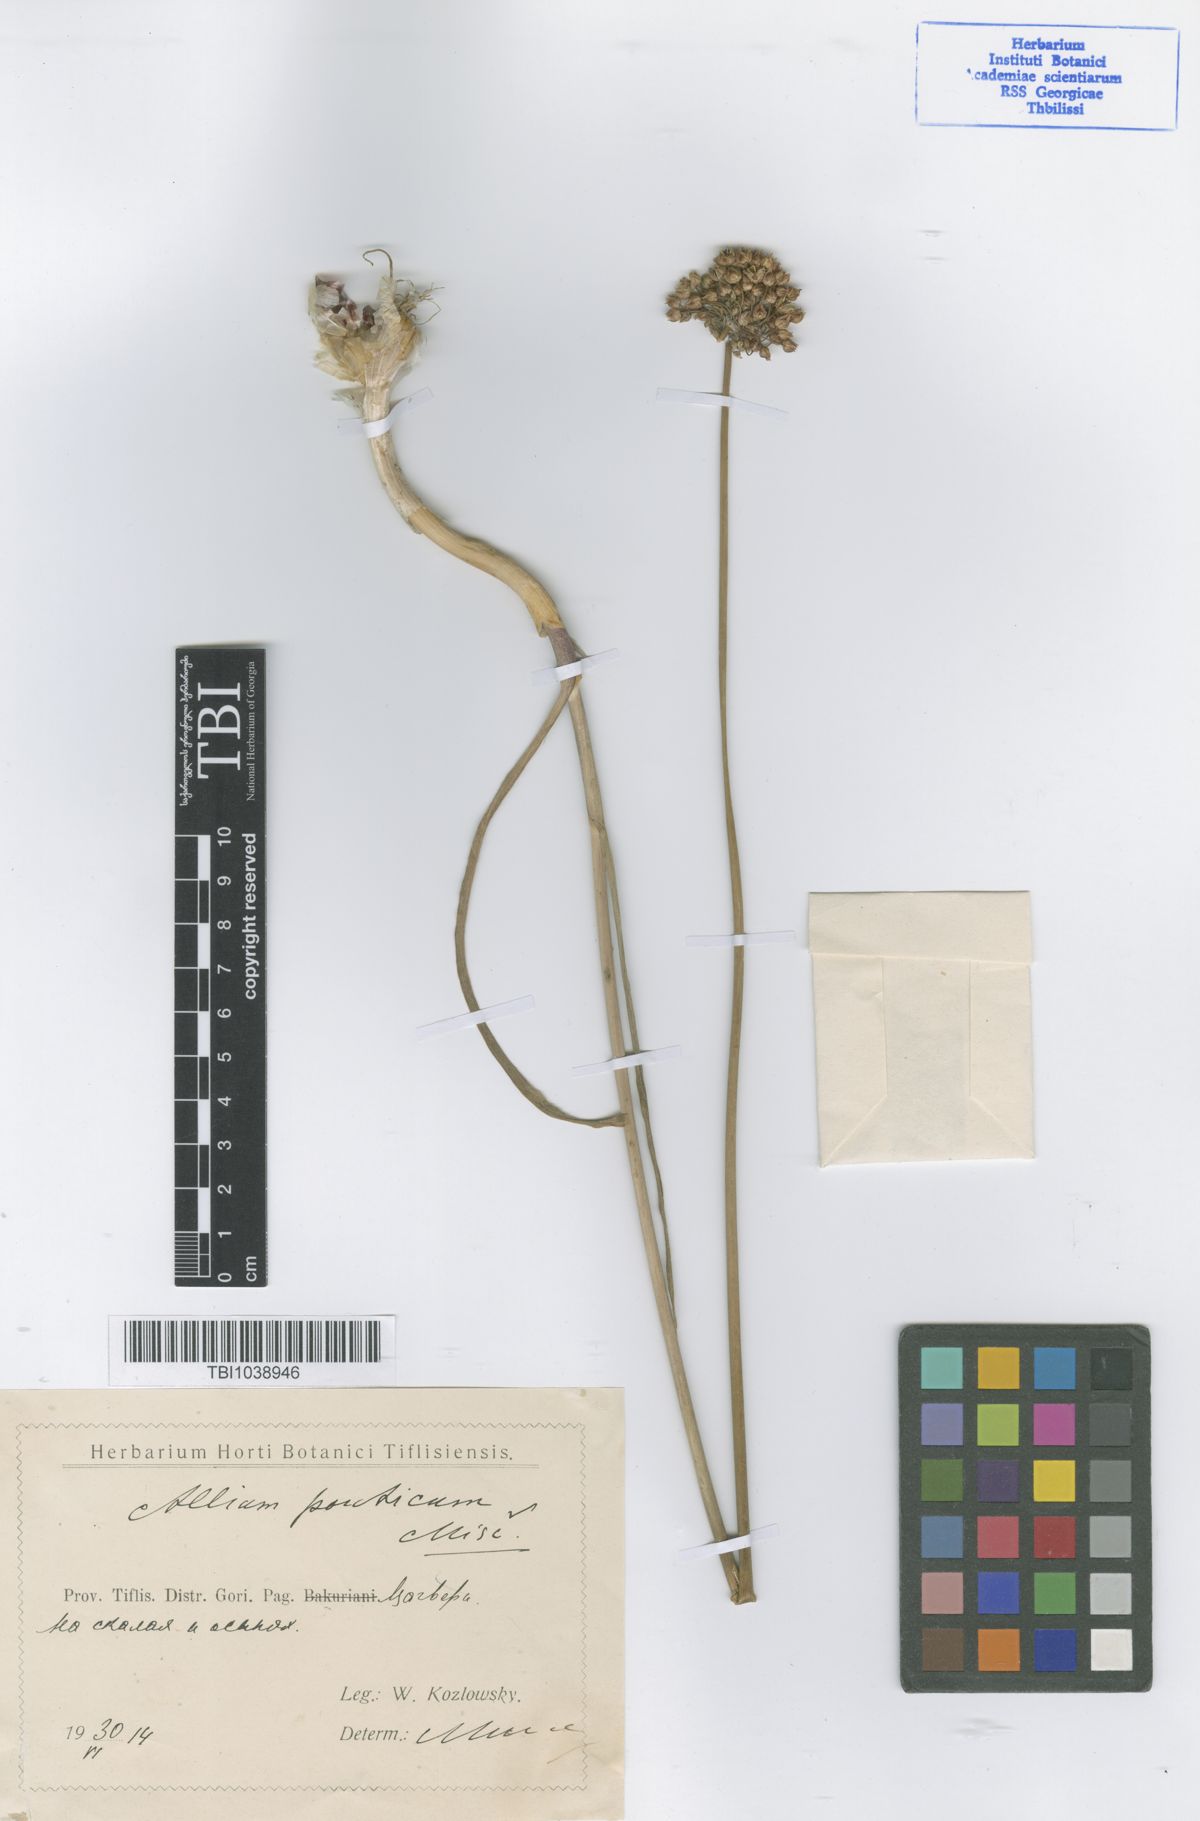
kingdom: Plantae
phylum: Tracheophyta
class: Liliopsida
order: Asparagales
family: Amaryllidaceae
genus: Allium
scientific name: Allium ponticum
